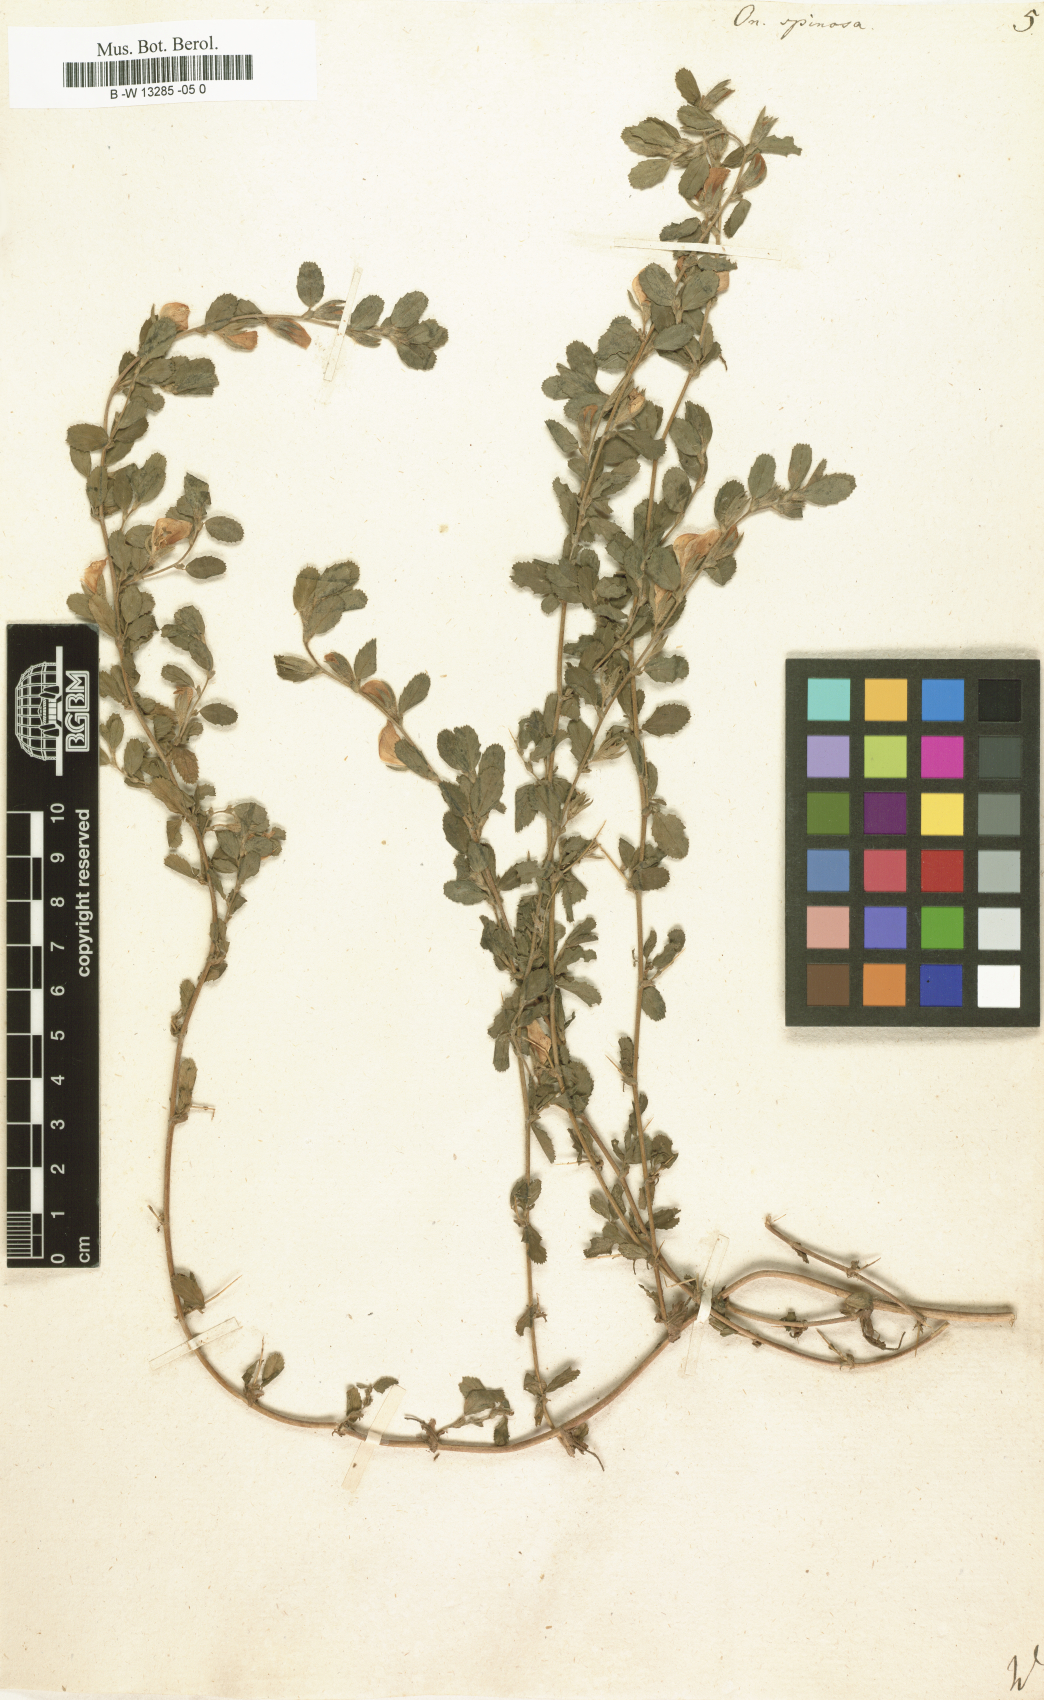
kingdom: Plantae
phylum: Tracheophyta
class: Magnoliopsida
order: Fabales
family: Fabaceae
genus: Ononis
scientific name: Ononis spinosa
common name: Spiny restharrow
